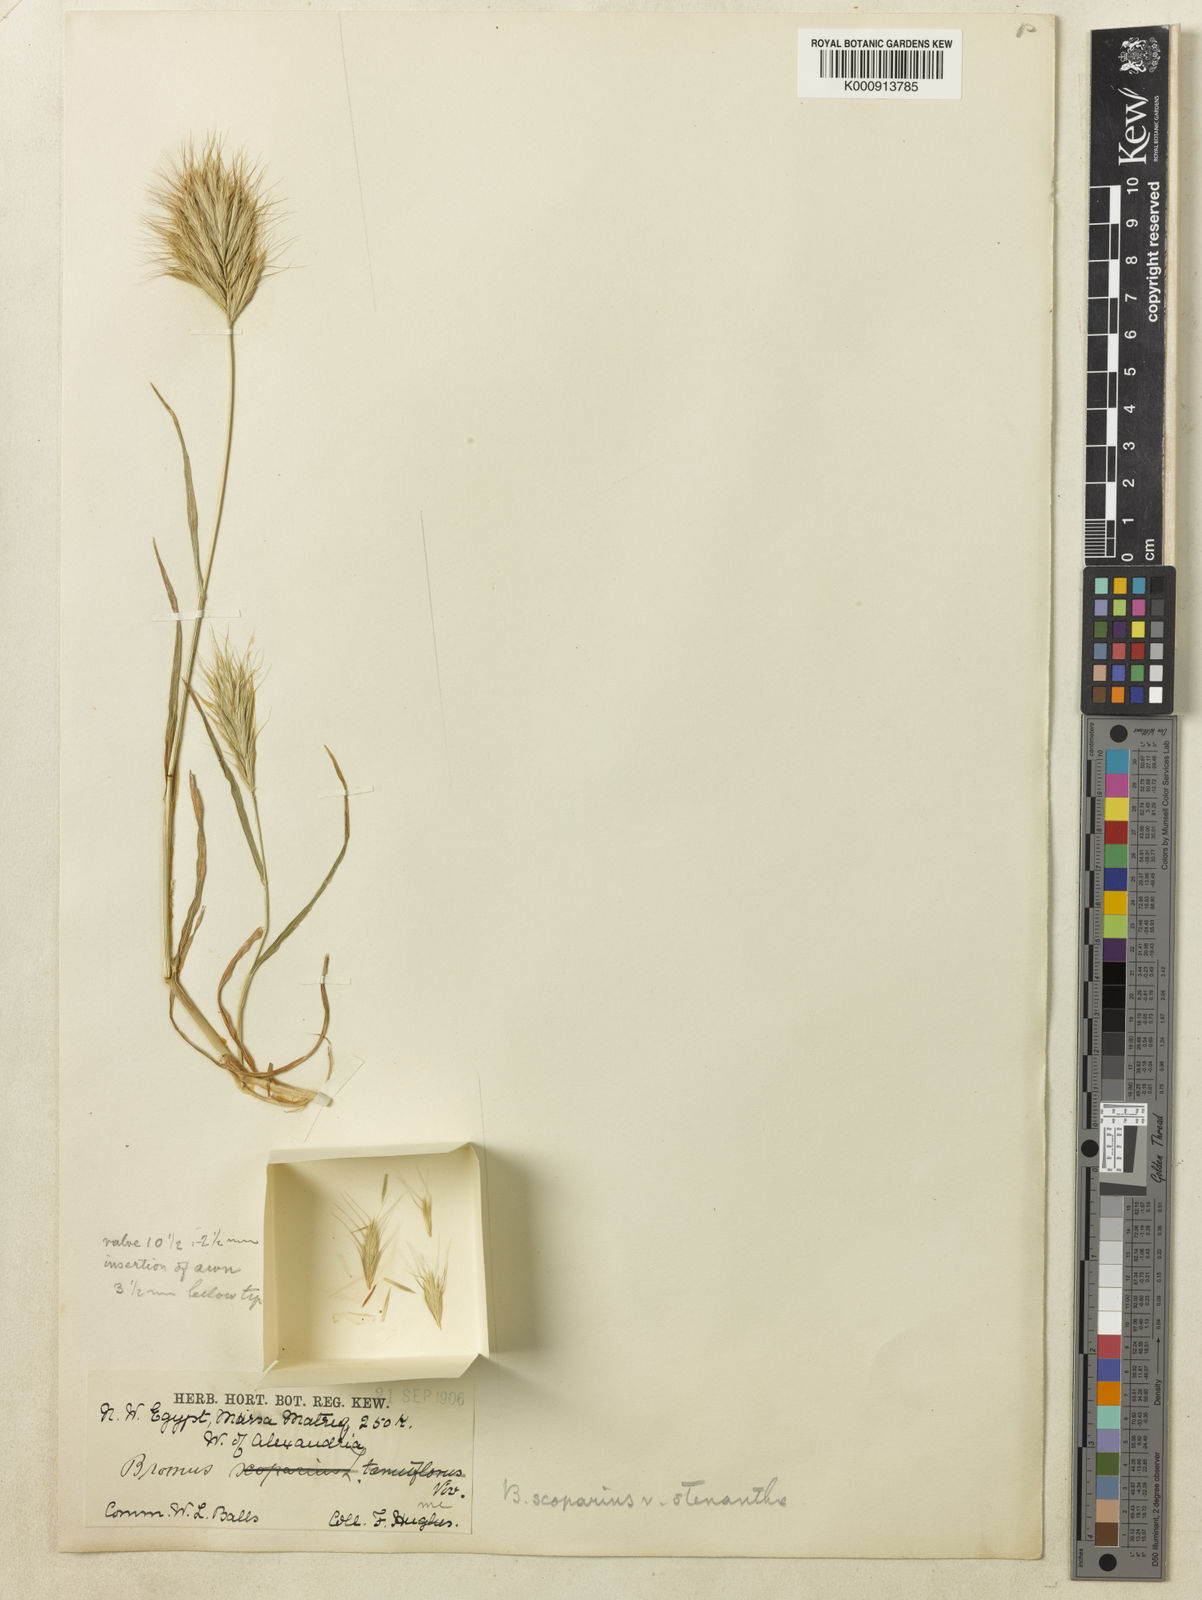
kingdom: Plantae
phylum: Tracheophyta
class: Liliopsida
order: Poales
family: Poaceae
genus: Bromus
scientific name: Bromus scoparius
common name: Broom brome
